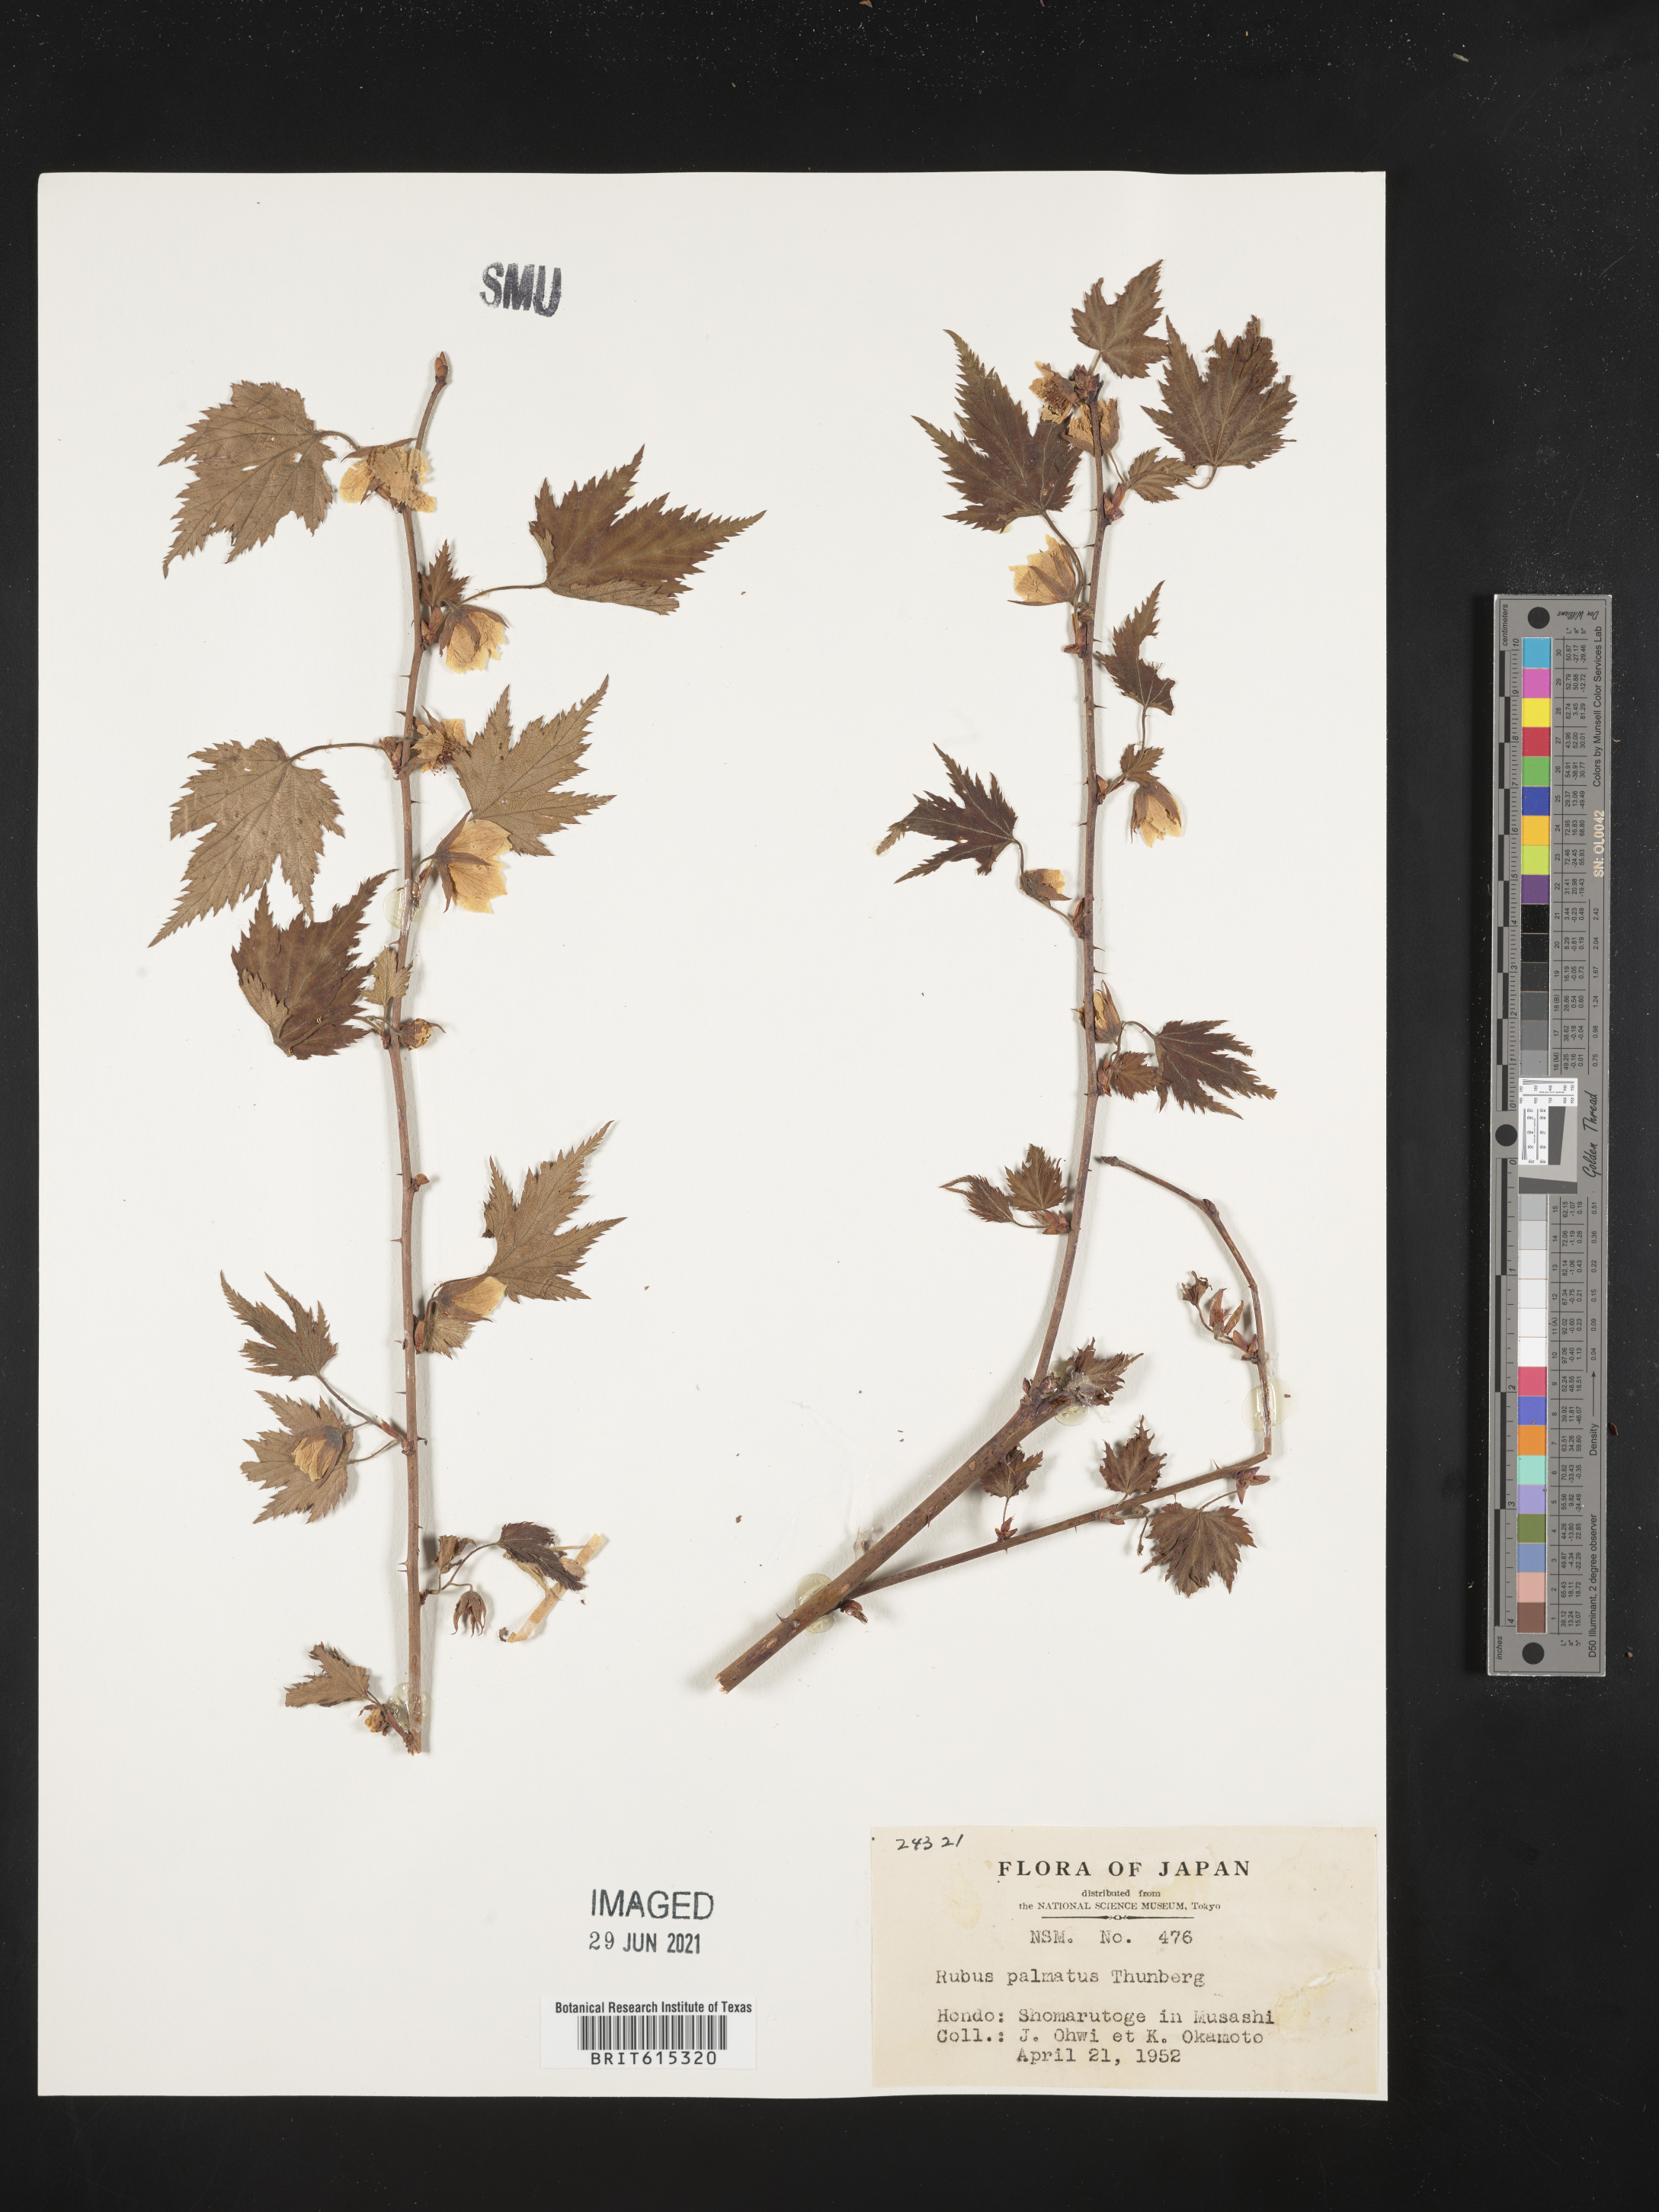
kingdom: Plantae
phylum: Tracheophyta
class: Magnoliopsida
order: Rosales
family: Rosaceae
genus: Rubus
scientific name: Rubus palmatus
